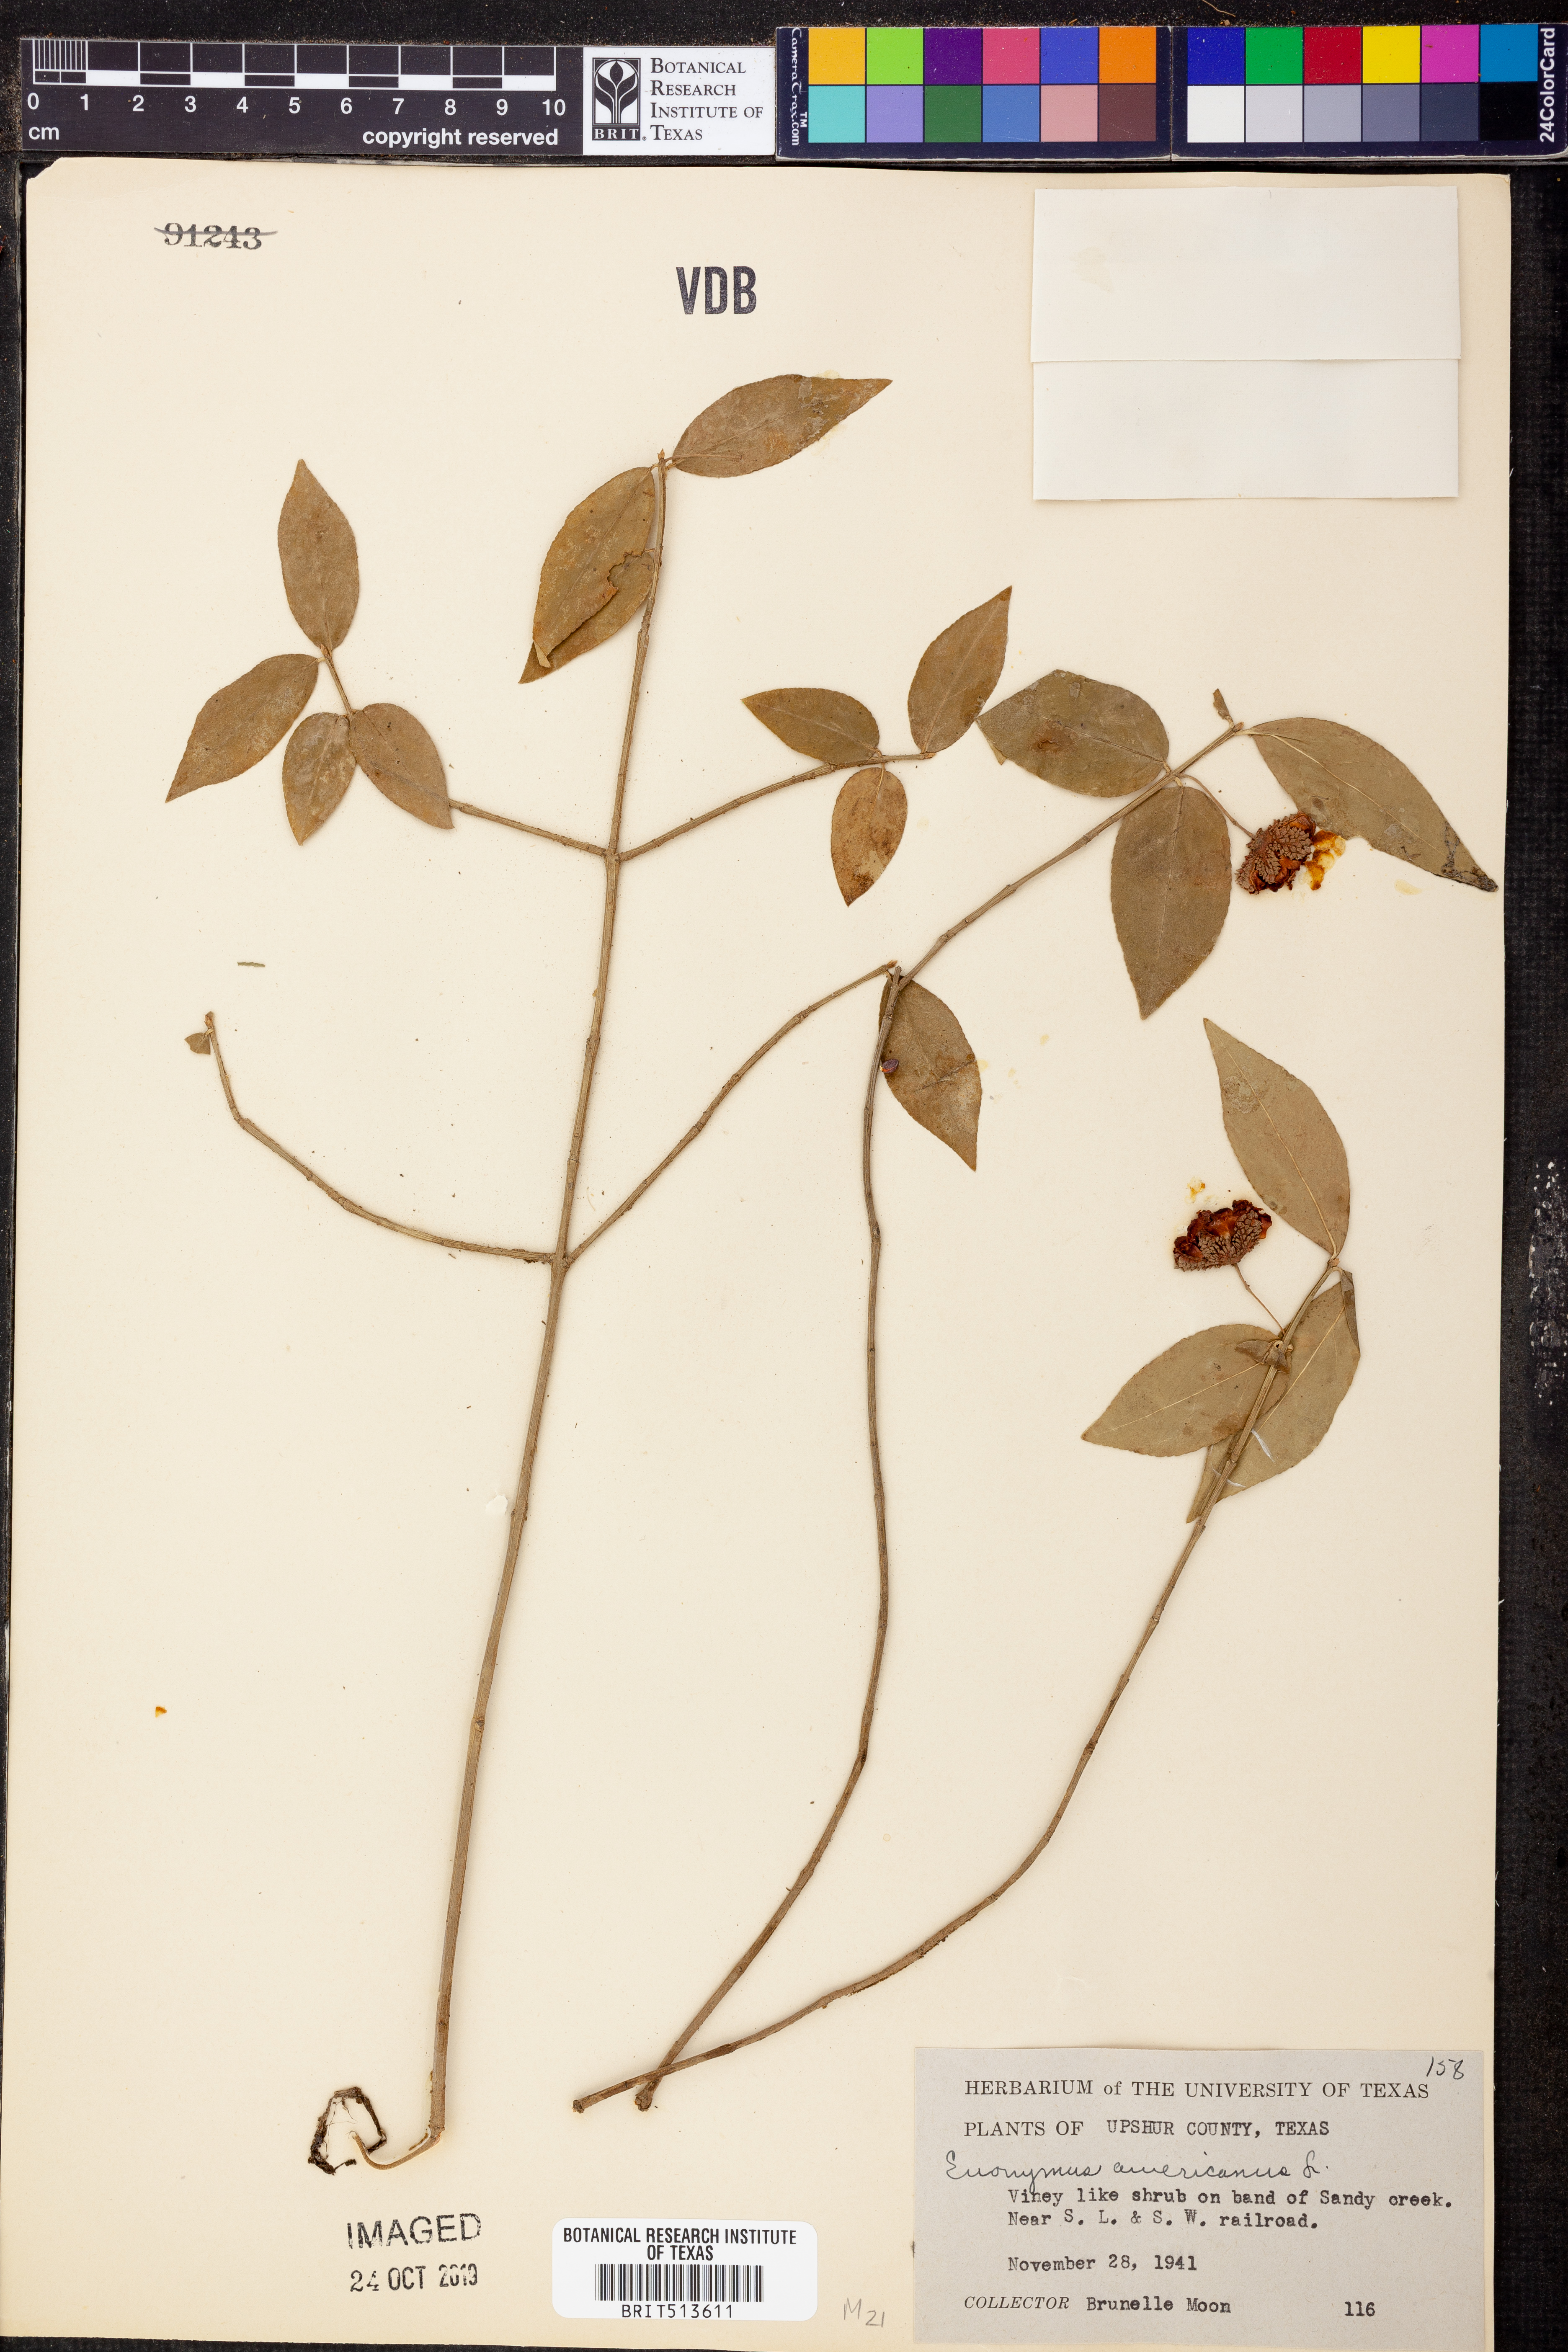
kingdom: Plantae
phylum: Tracheophyta
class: Magnoliopsida
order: Celastrales
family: Celastraceae
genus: Euonymus
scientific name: Euonymus americanus
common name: Bursting-heart
